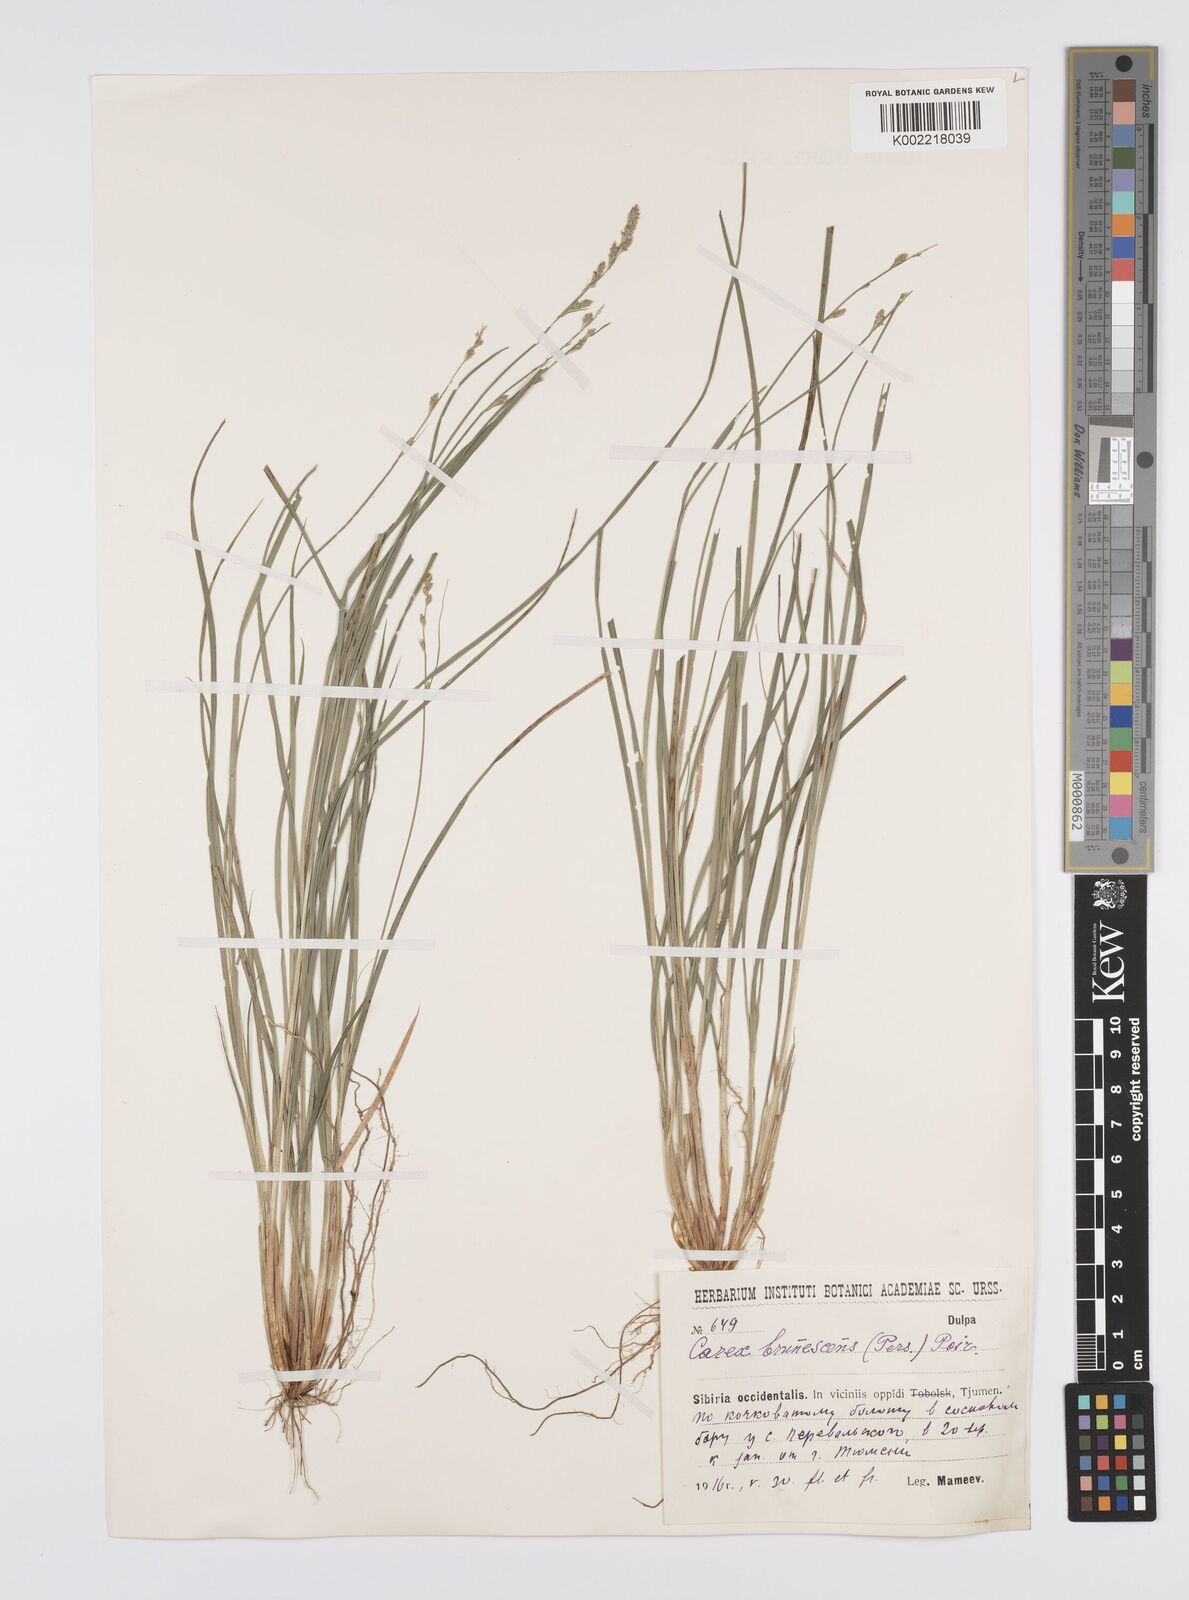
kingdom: Plantae
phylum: Tracheophyta
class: Liliopsida
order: Poales
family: Cyperaceae
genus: Carex
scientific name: Carex brunnescens
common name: Brown sedge
